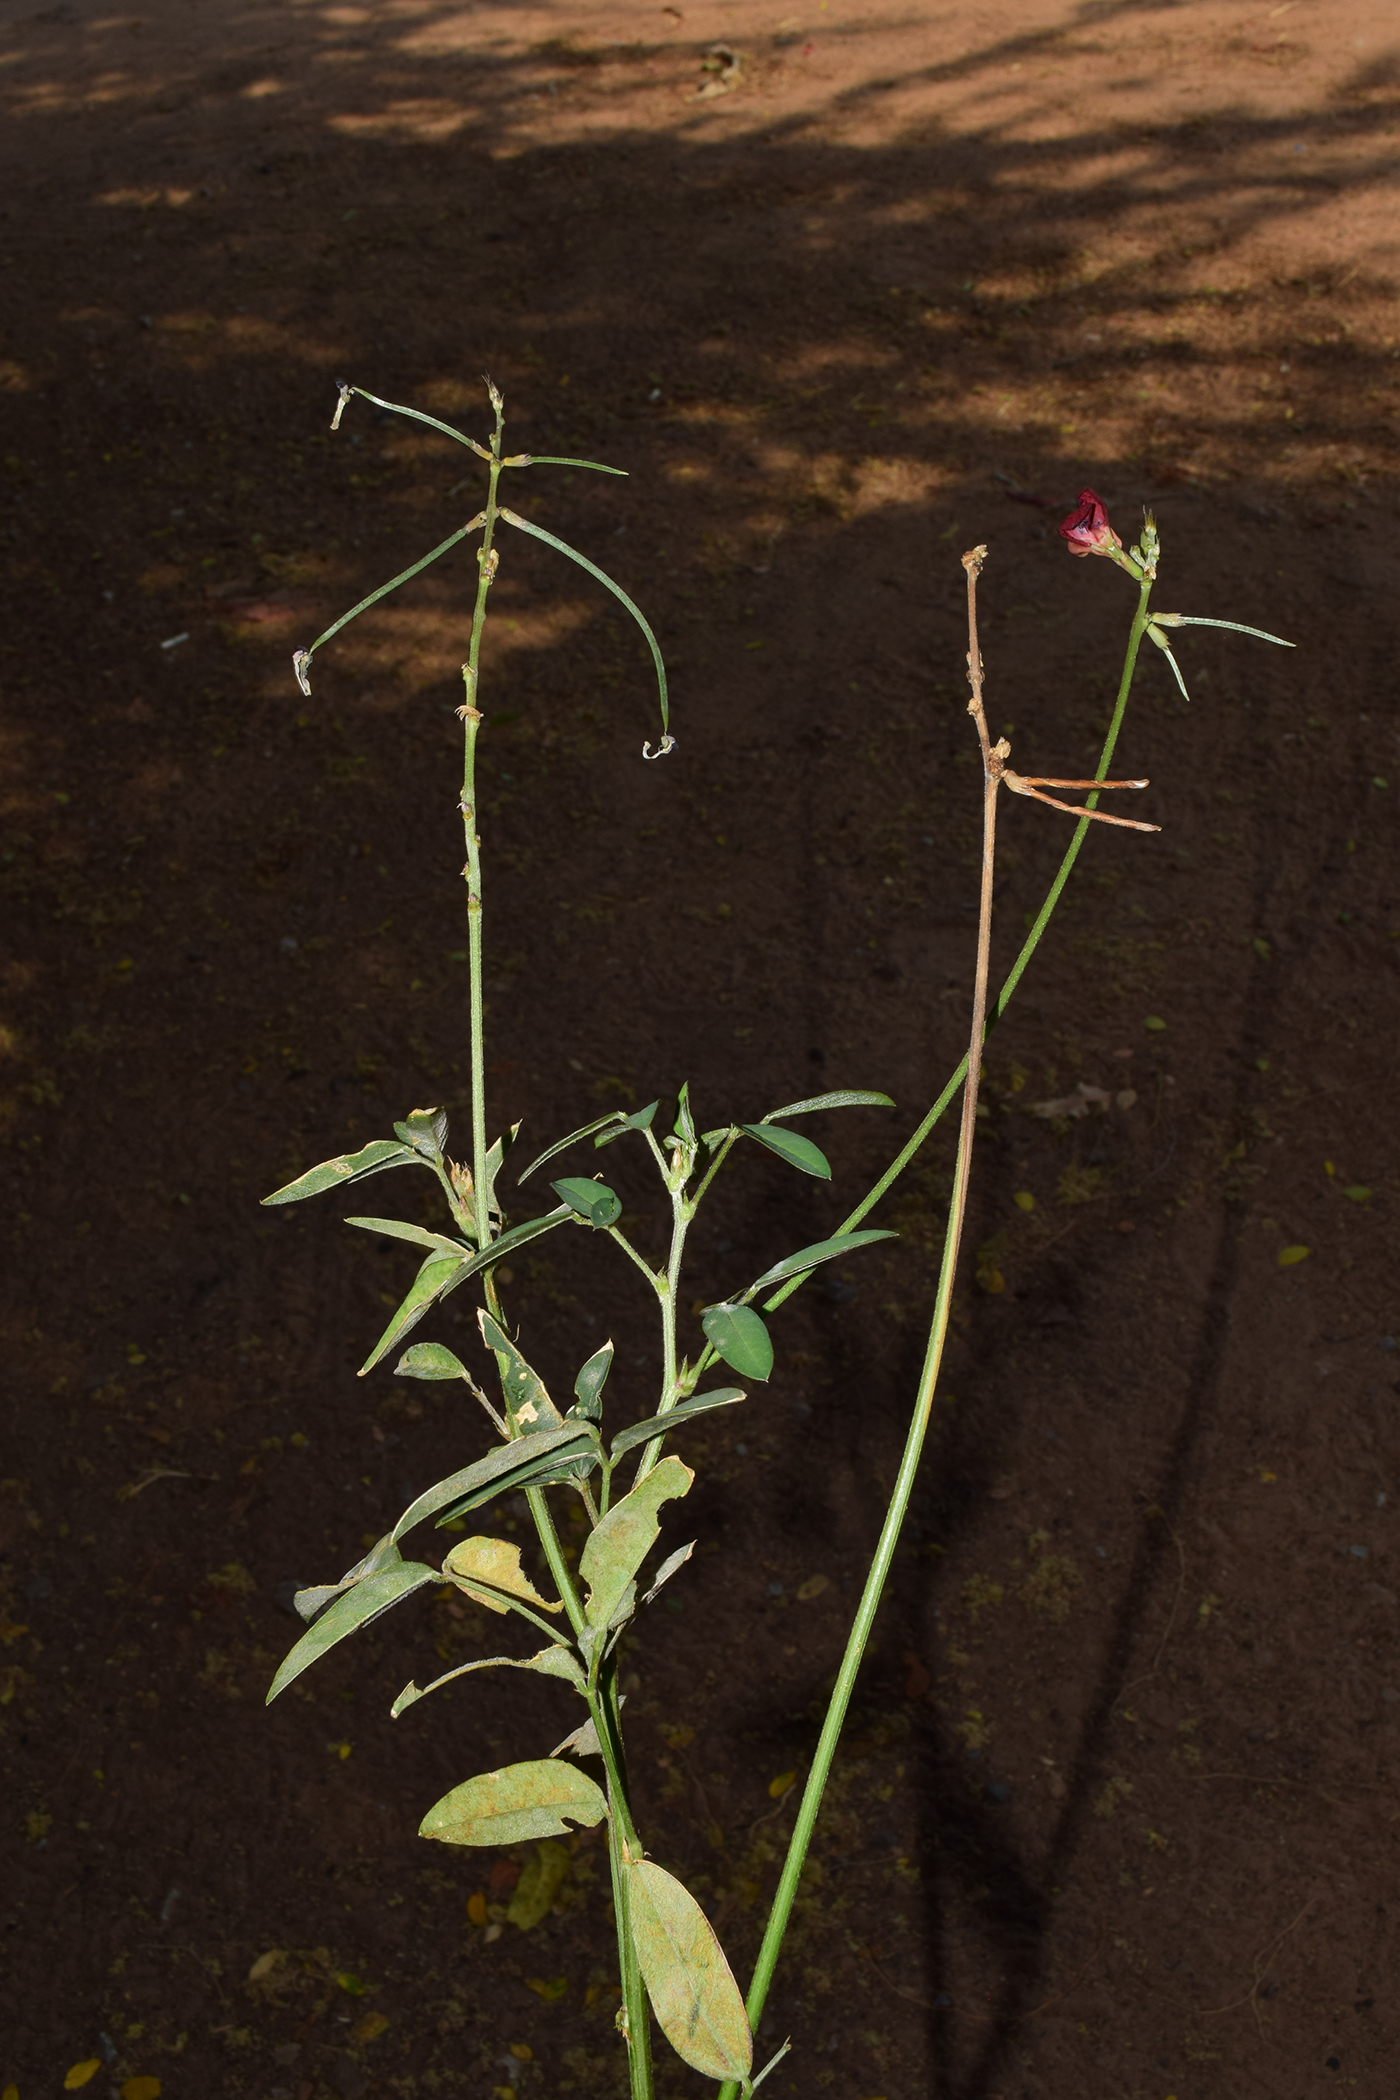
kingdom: Plantae
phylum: Tracheophyta
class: Magnoliopsida
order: Fabales
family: Fabaceae
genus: Macroptilium
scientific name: Macroptilium lathyroides
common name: Wild bushbean
